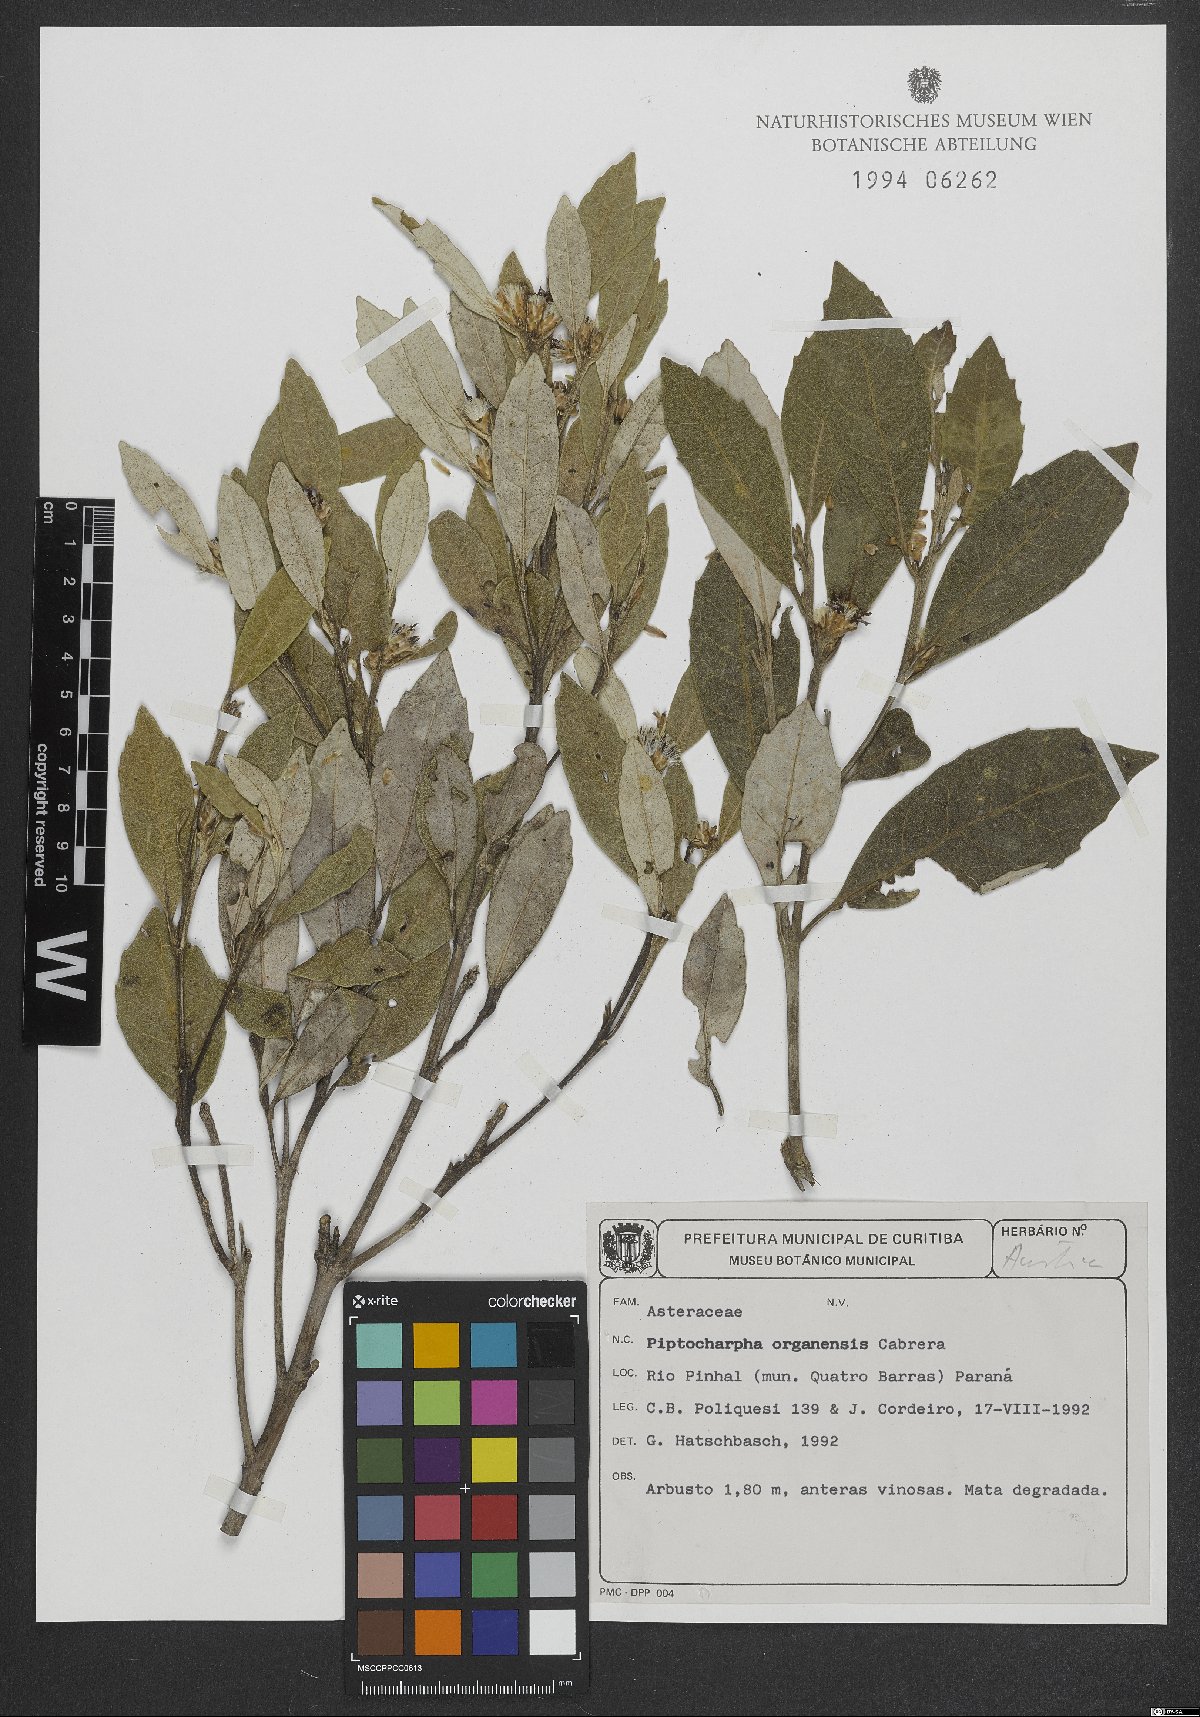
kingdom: Plantae
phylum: Tracheophyta
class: Magnoliopsida
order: Asterales
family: Asteraceae
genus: Piptocarpha
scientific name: Piptocarpha organensis
